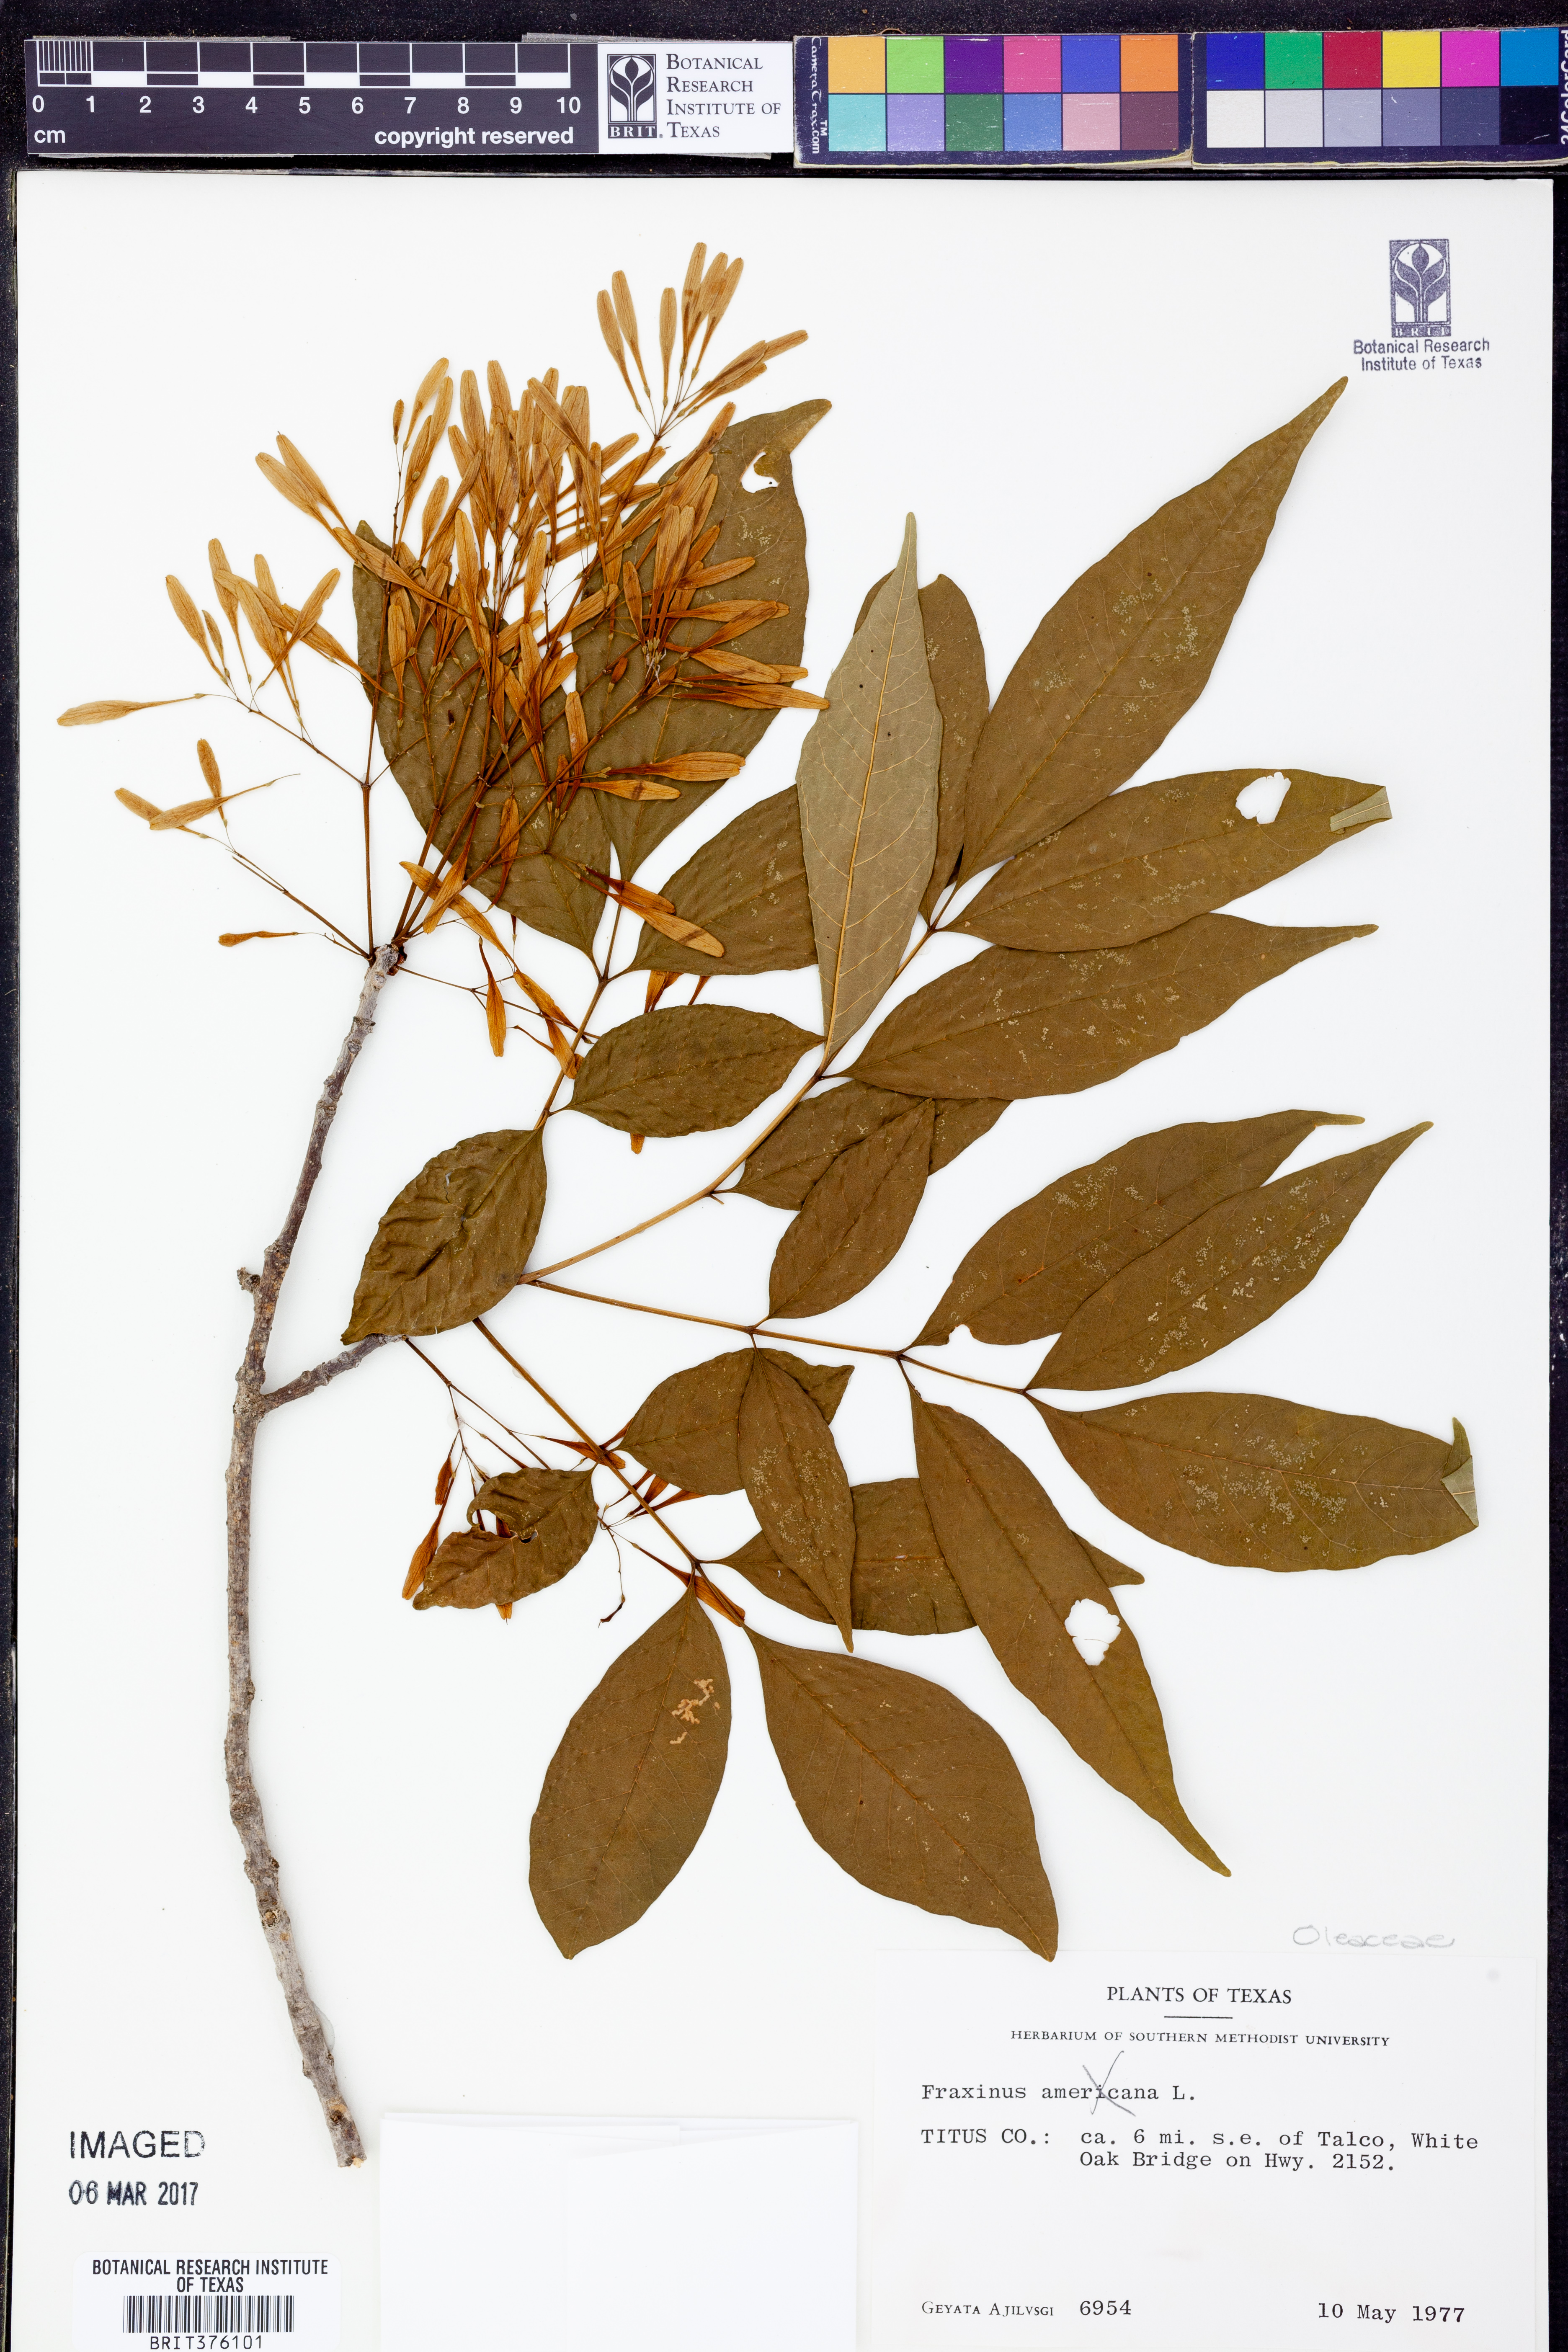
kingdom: Plantae
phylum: Tracheophyta
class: Magnoliopsida
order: Lamiales
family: Oleaceae
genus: Fraxinus
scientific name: Fraxinus
